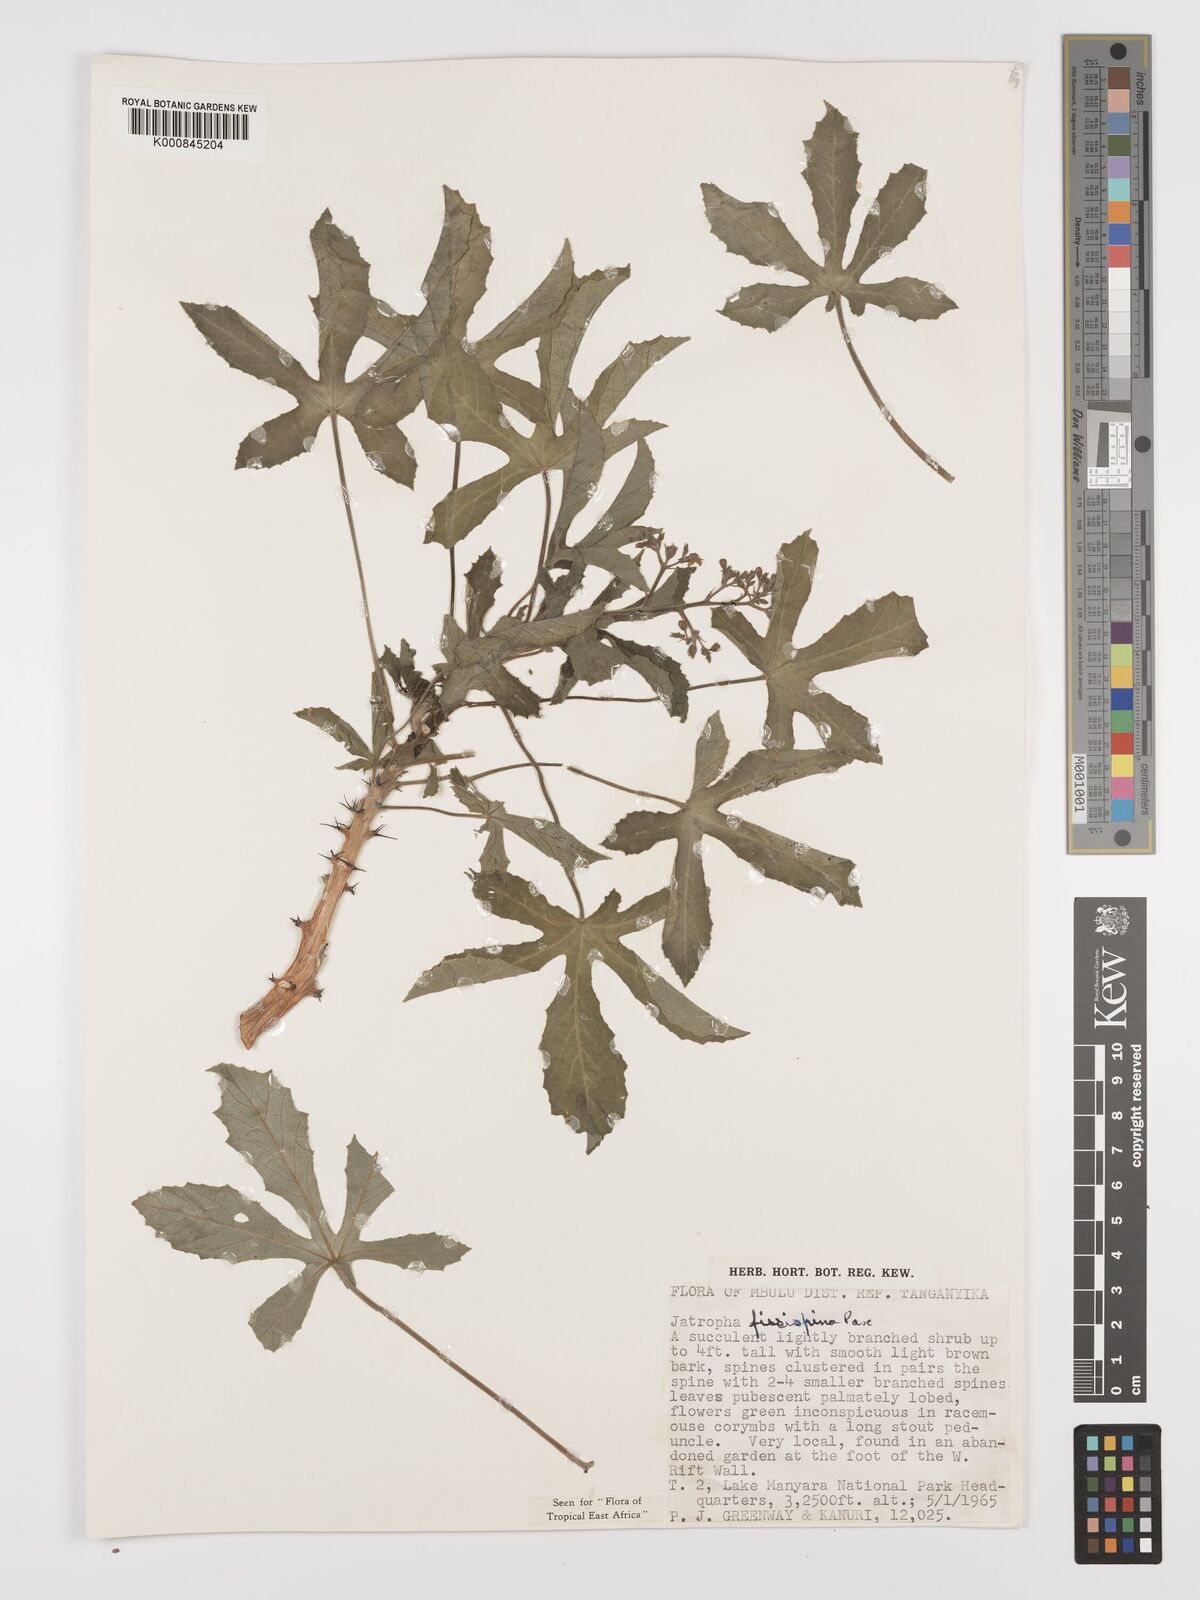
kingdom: Plantae
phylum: Tracheophyta
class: Magnoliopsida
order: Malpighiales
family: Euphorbiaceae
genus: Jatropha
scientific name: Jatropha ellenbeckii
